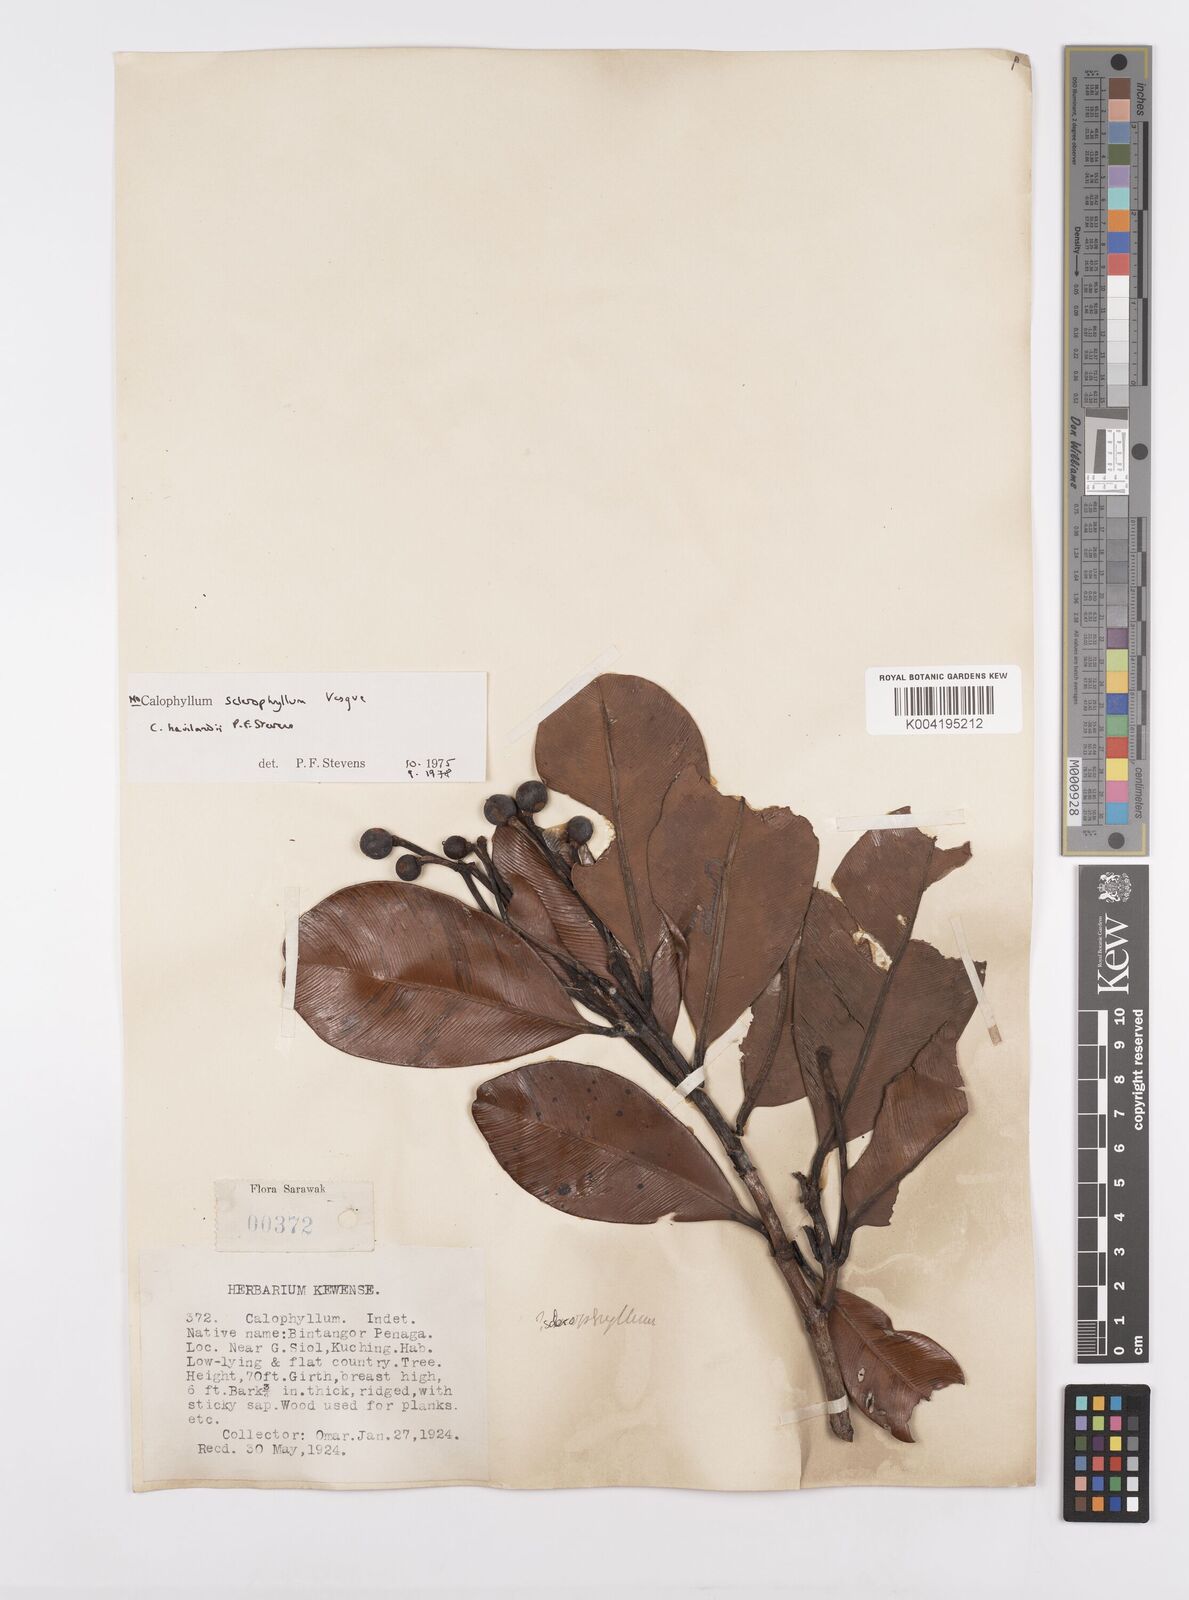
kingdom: Plantae
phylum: Tracheophyta
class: Magnoliopsida
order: Malpighiales
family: Calophyllaceae
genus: Calophyllum
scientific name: Calophyllum havilandii
